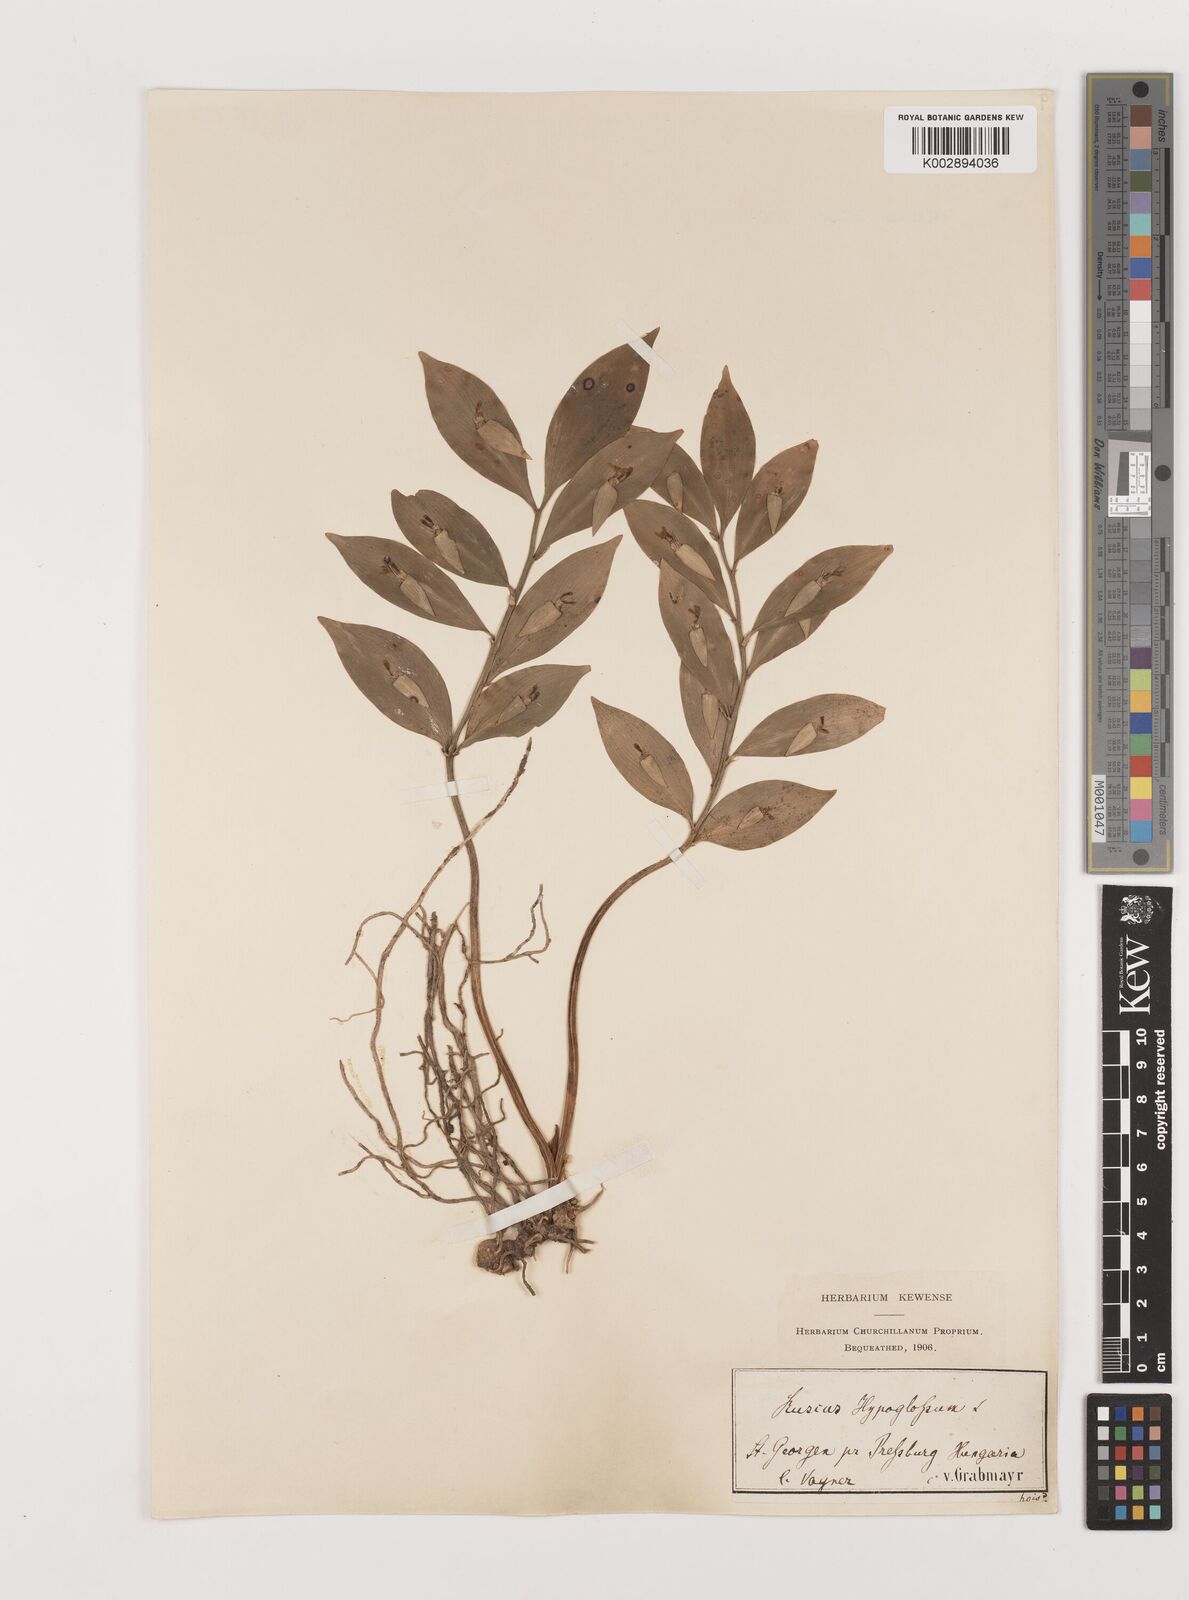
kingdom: Plantae
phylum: Tracheophyta
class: Liliopsida
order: Asparagales
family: Asparagaceae
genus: Ruscus
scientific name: Ruscus hypoglossum
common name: Spineless butcher's-broom
